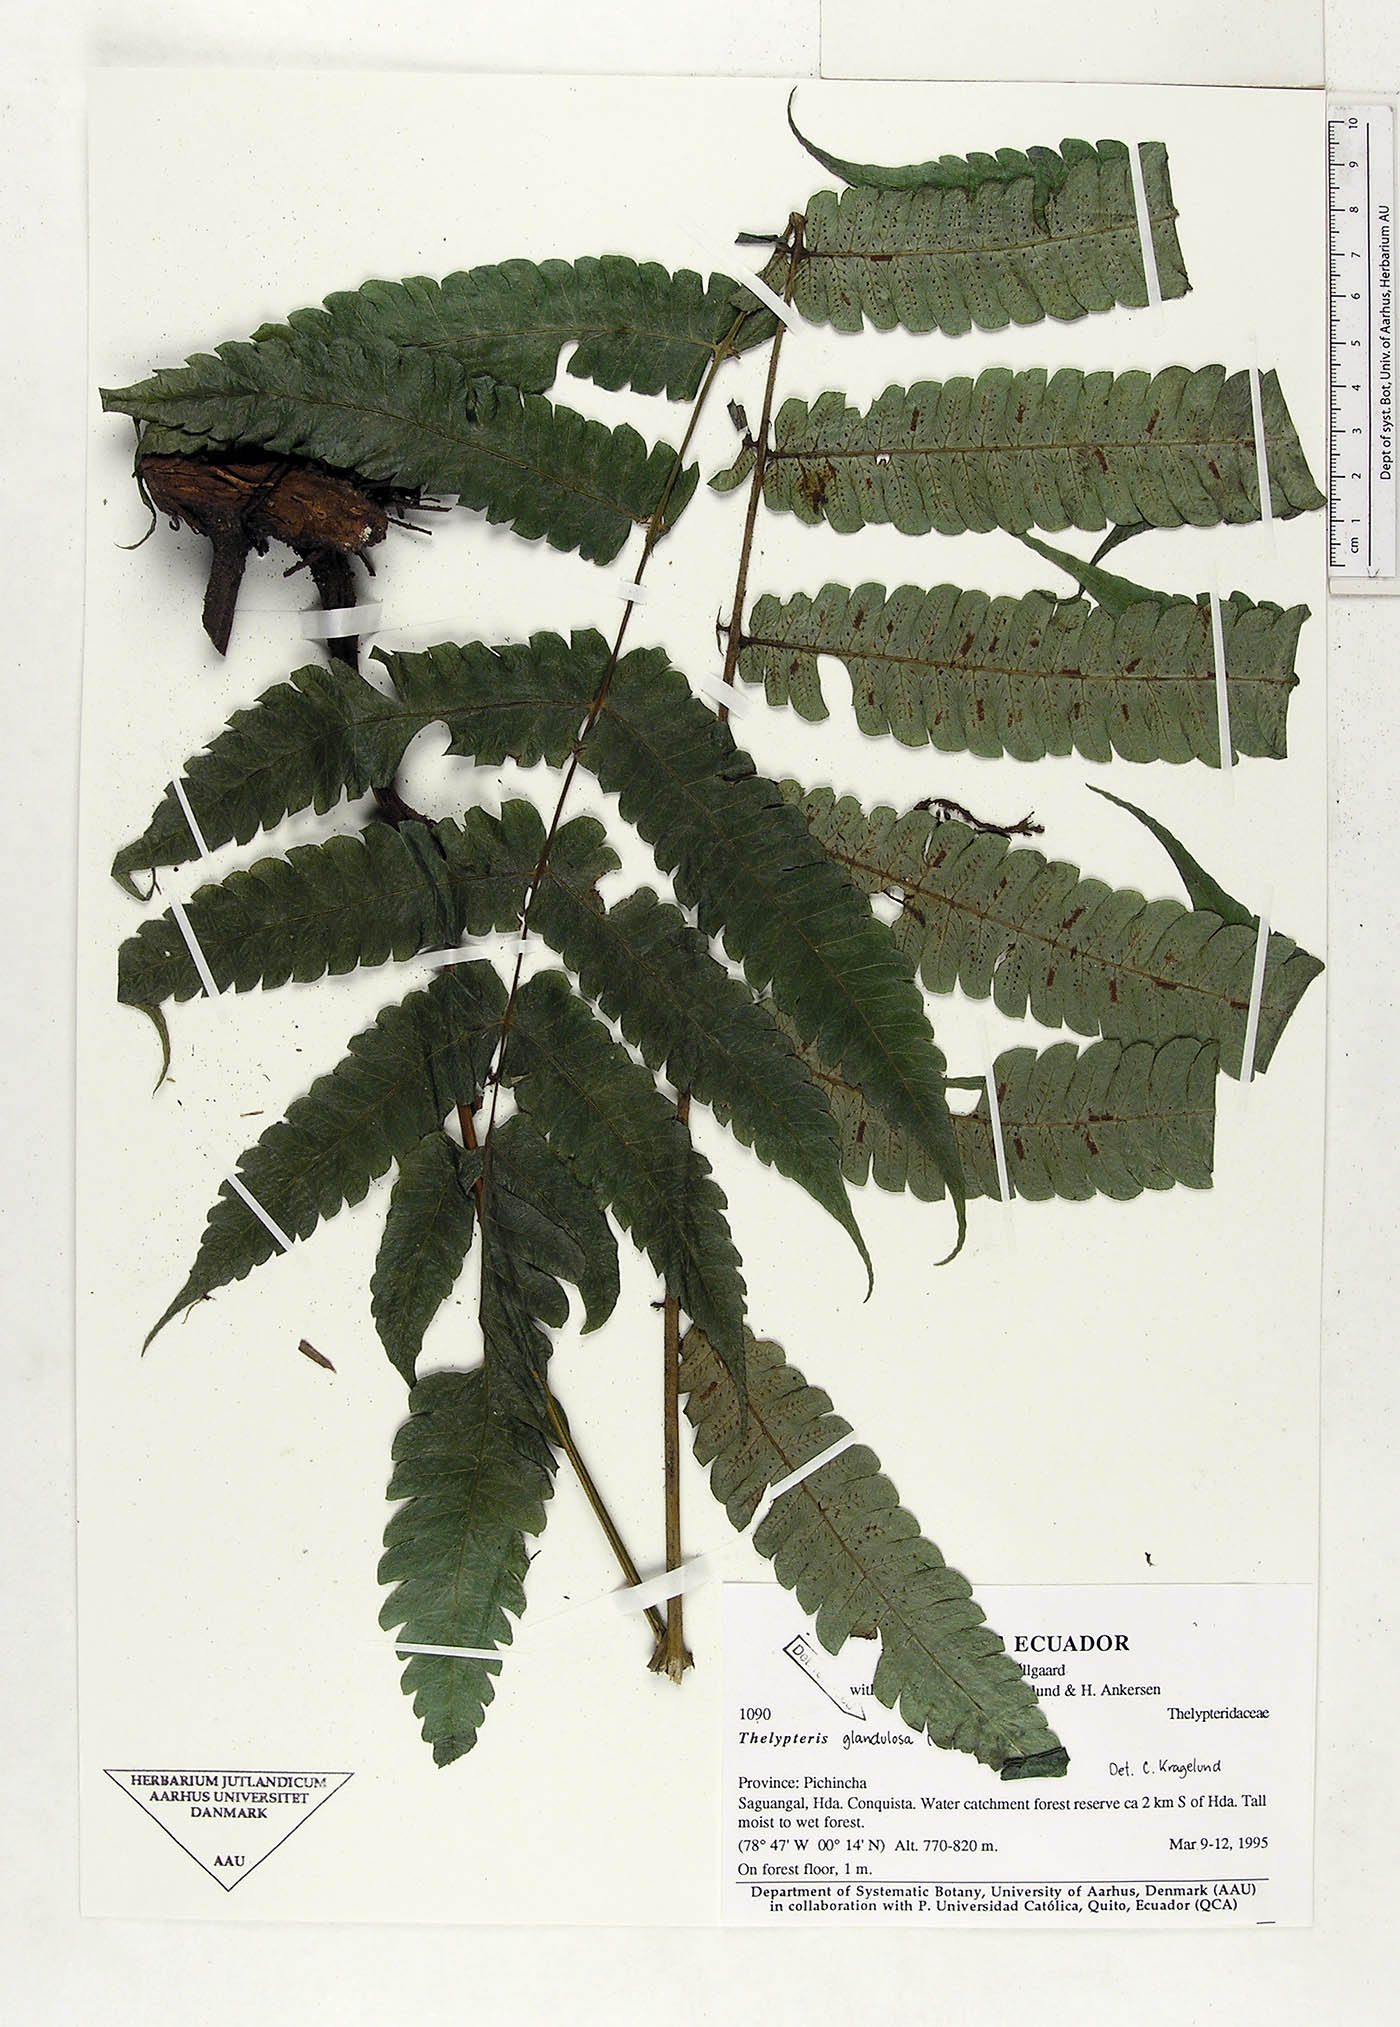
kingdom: Plantae
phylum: Tracheophyta
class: Polypodiopsida
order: Polypodiales
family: Thelypteridaceae
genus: Steiropteris
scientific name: Steiropteris glandulosa
